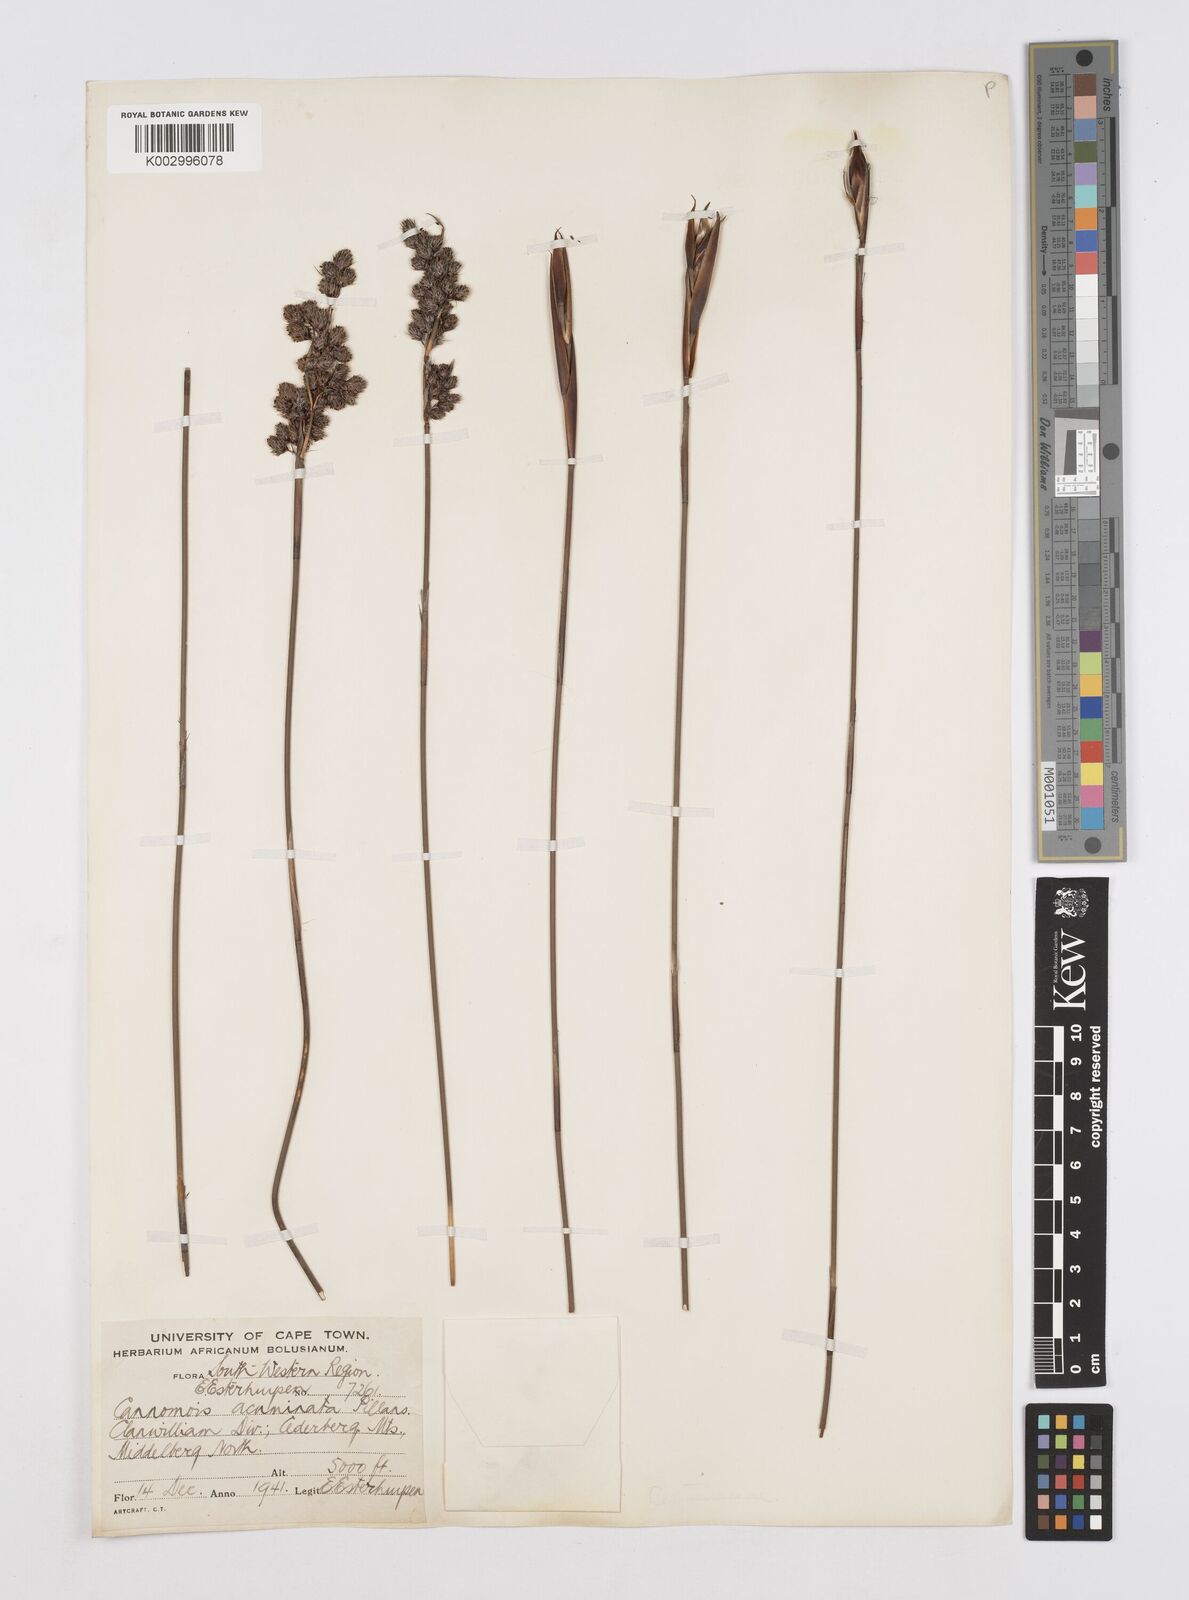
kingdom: Plantae
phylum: Tracheophyta
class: Liliopsida
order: Poales
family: Restionaceae
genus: Cannomois
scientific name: Cannomois parviflora
